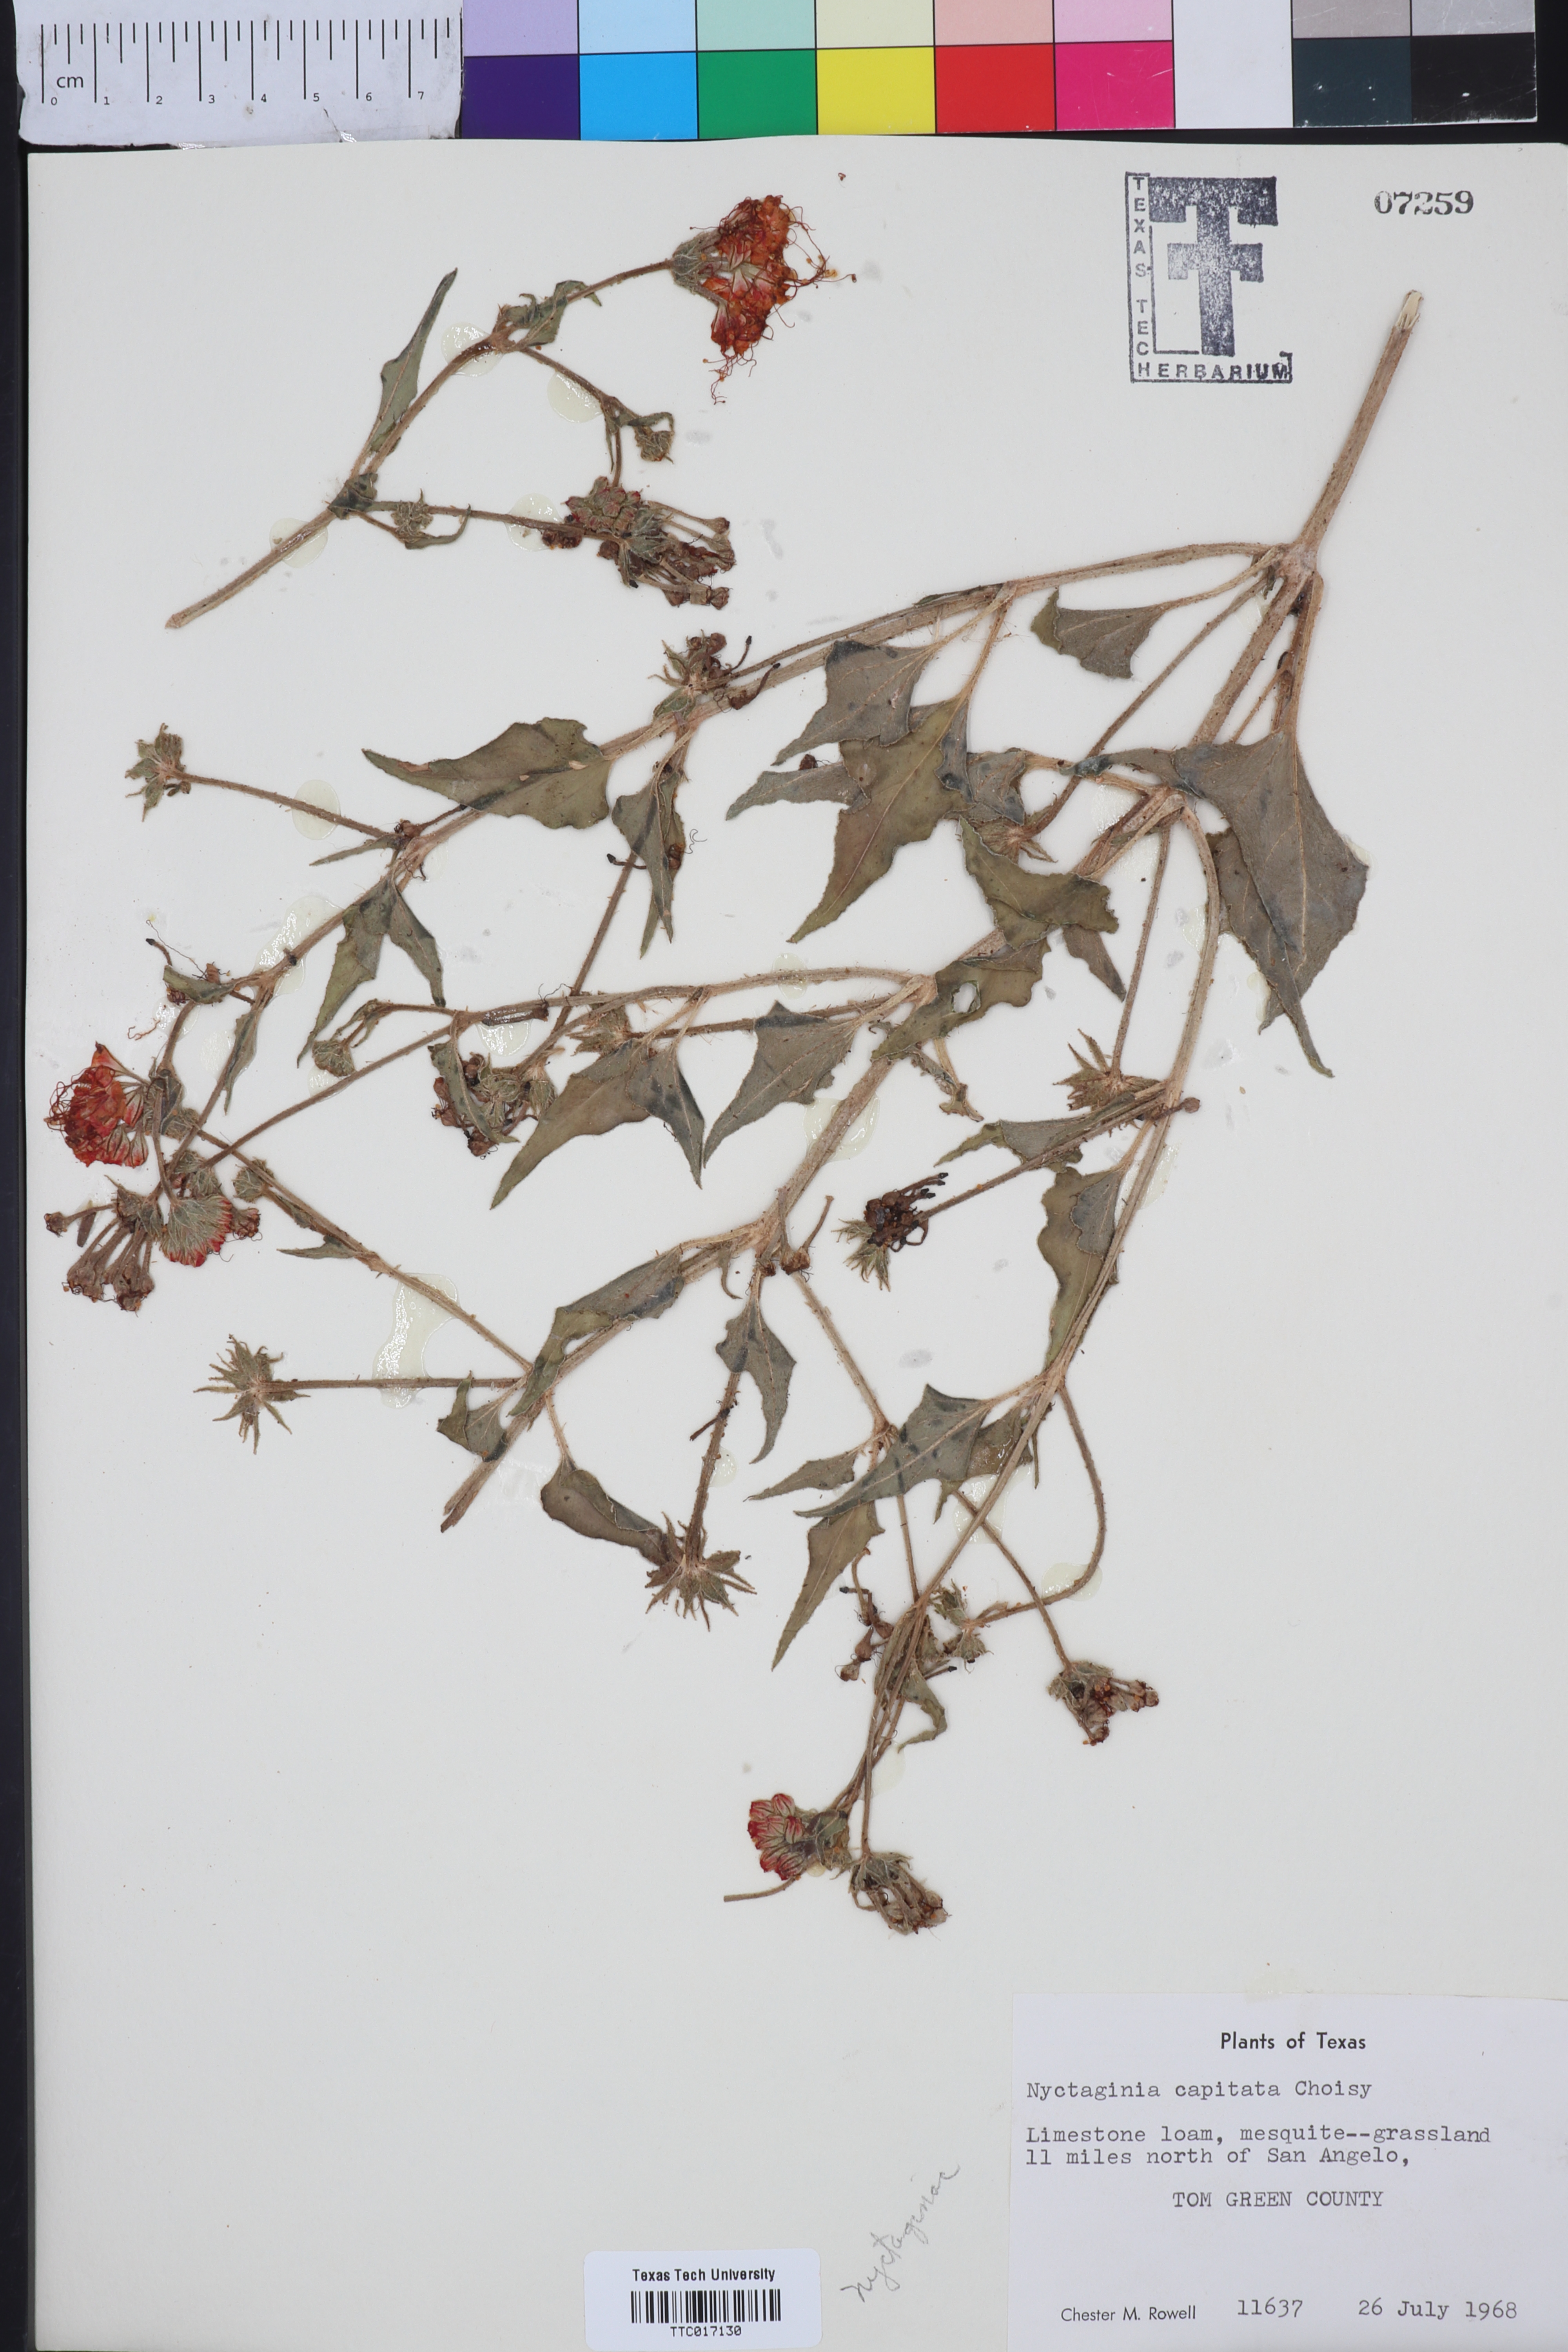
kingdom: Plantae
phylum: Tracheophyta
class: Magnoliopsida
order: Caryophyllales
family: Nyctaginaceae
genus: Nyctaginia
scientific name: Nyctaginia capitata
